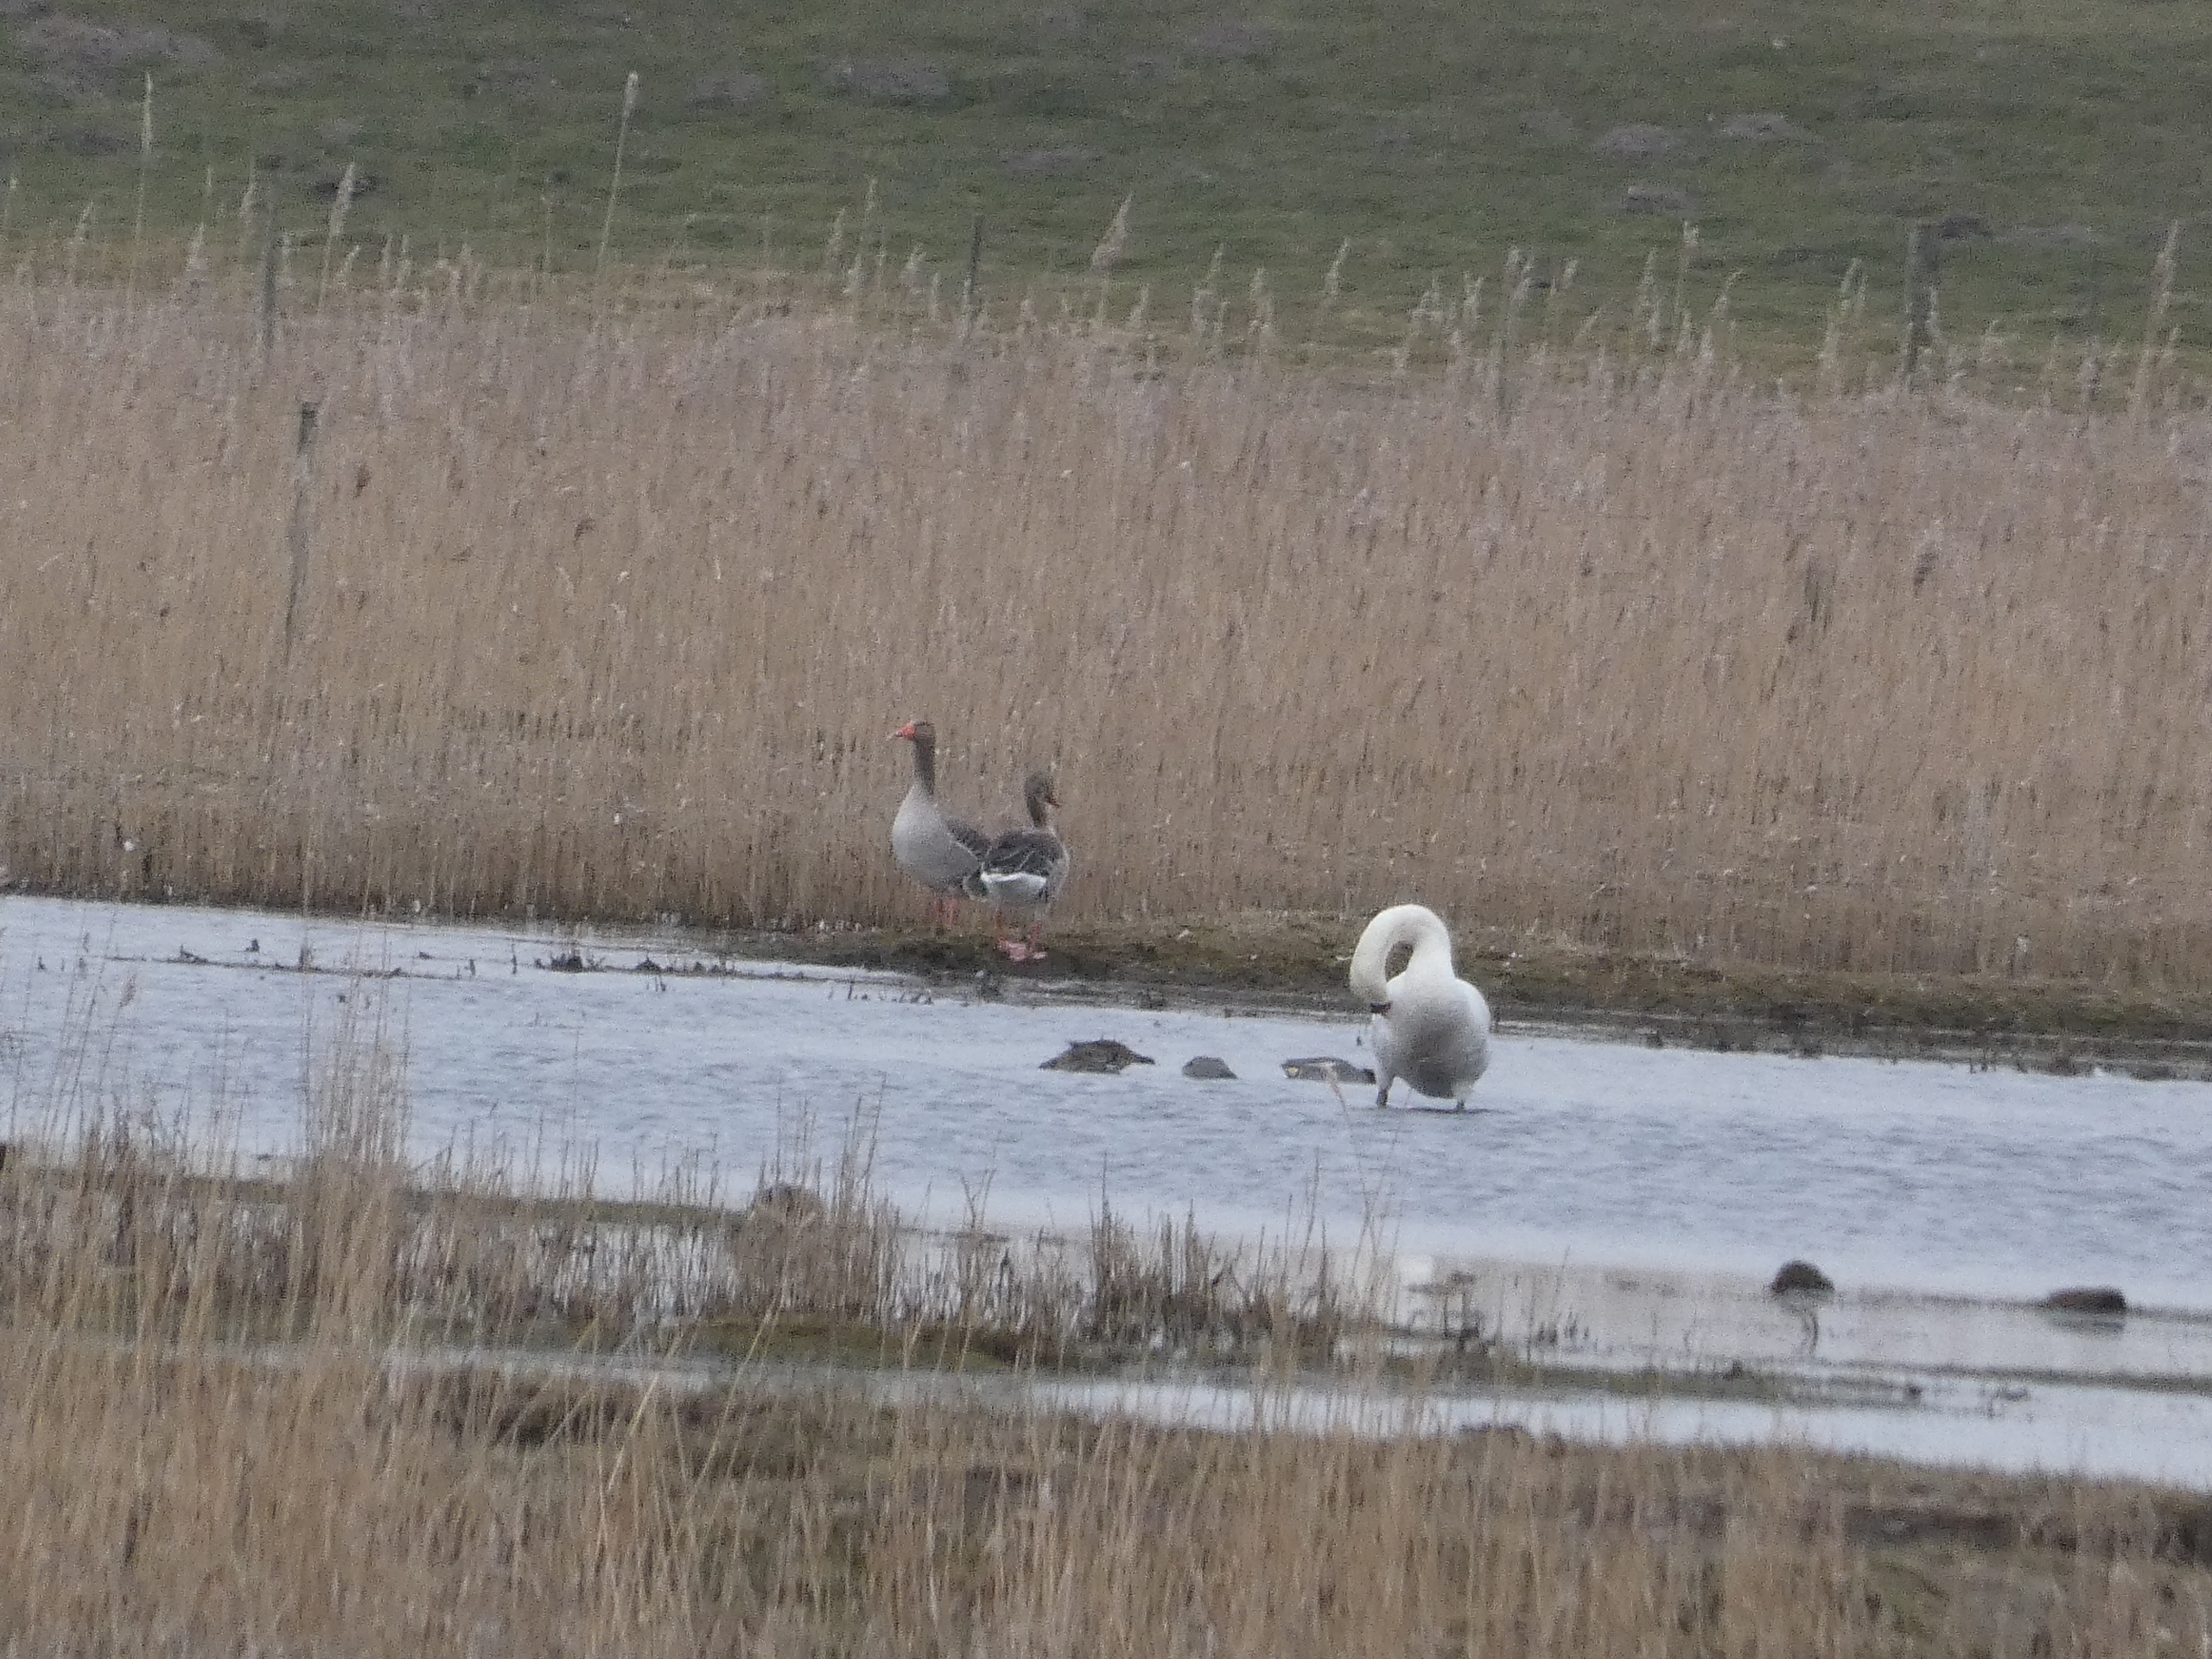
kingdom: Animalia
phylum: Chordata
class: Aves
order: Anseriformes
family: Anatidae
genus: Anser
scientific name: Anser anser
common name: Grågås
